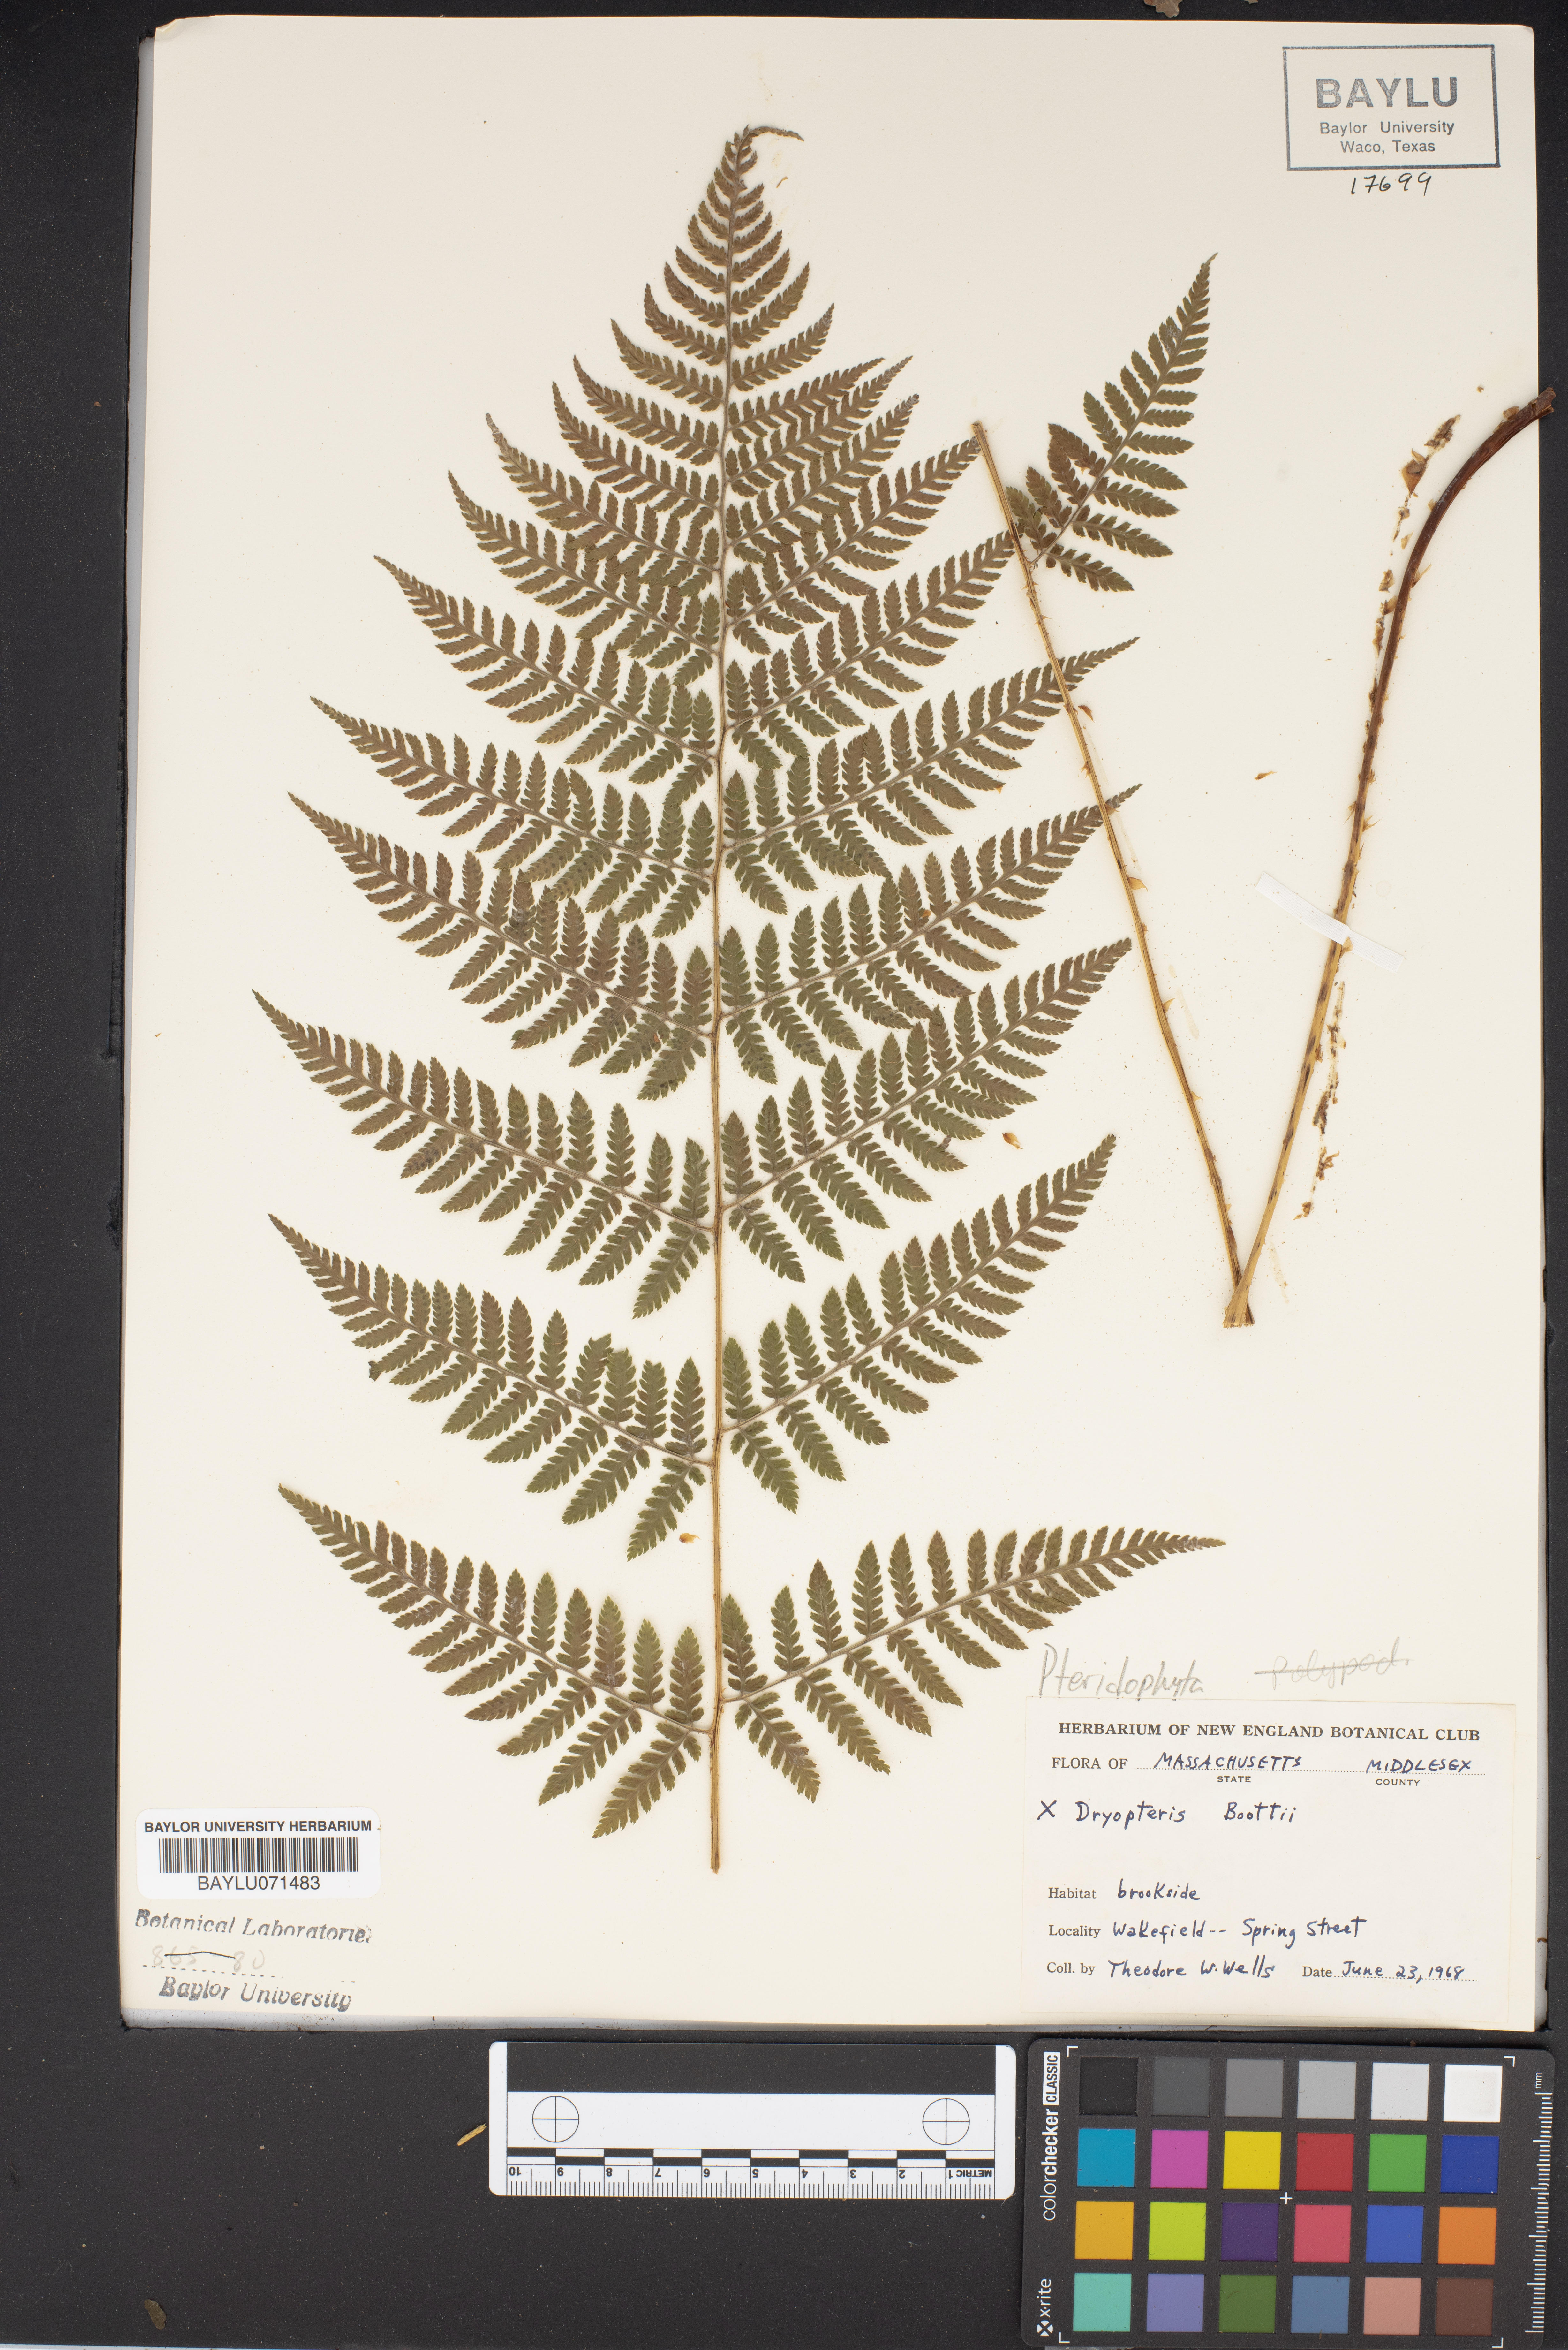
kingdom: Plantae
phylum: Tracheophyta
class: Polypodiopsida
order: Polypodiales
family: Dryopteridaceae
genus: Dryopteris
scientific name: Dryopteris
